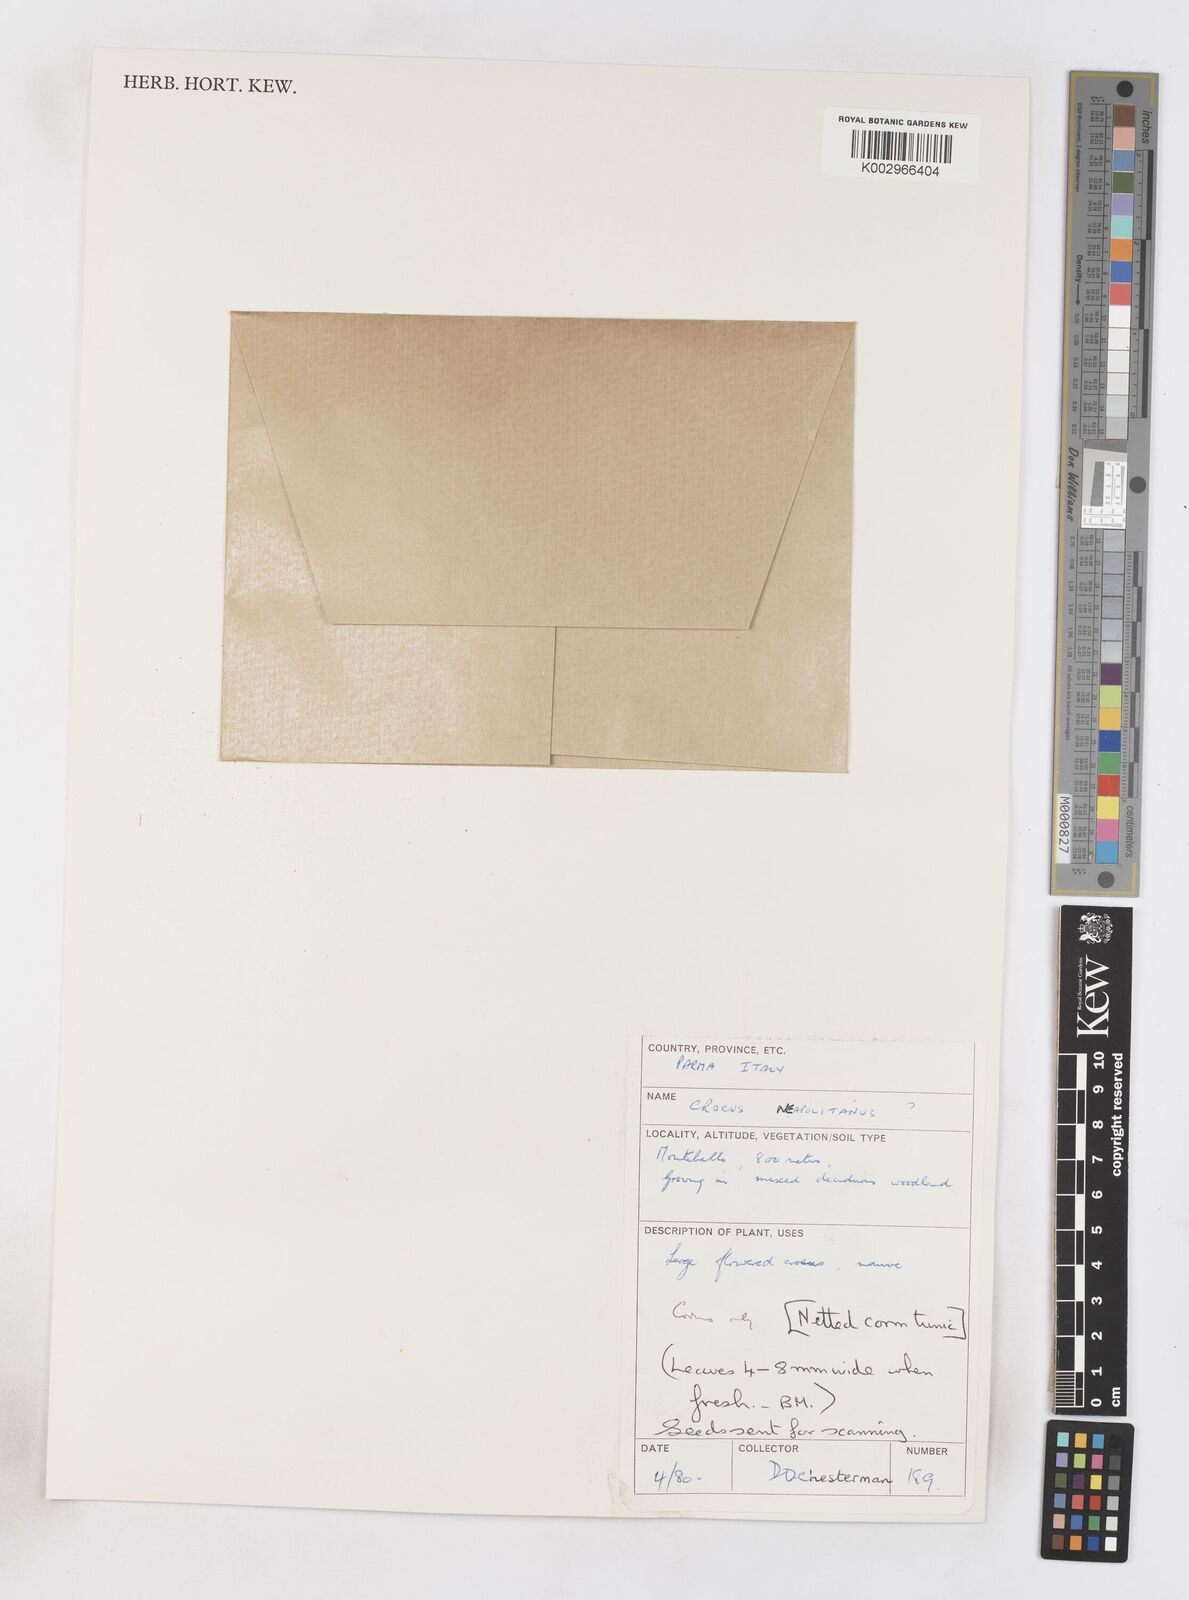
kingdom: Plantae
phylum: Tracheophyta
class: Liliopsida
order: Asparagales
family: Iridaceae
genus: Crocus
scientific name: Crocus vernus
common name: Spring crocus
